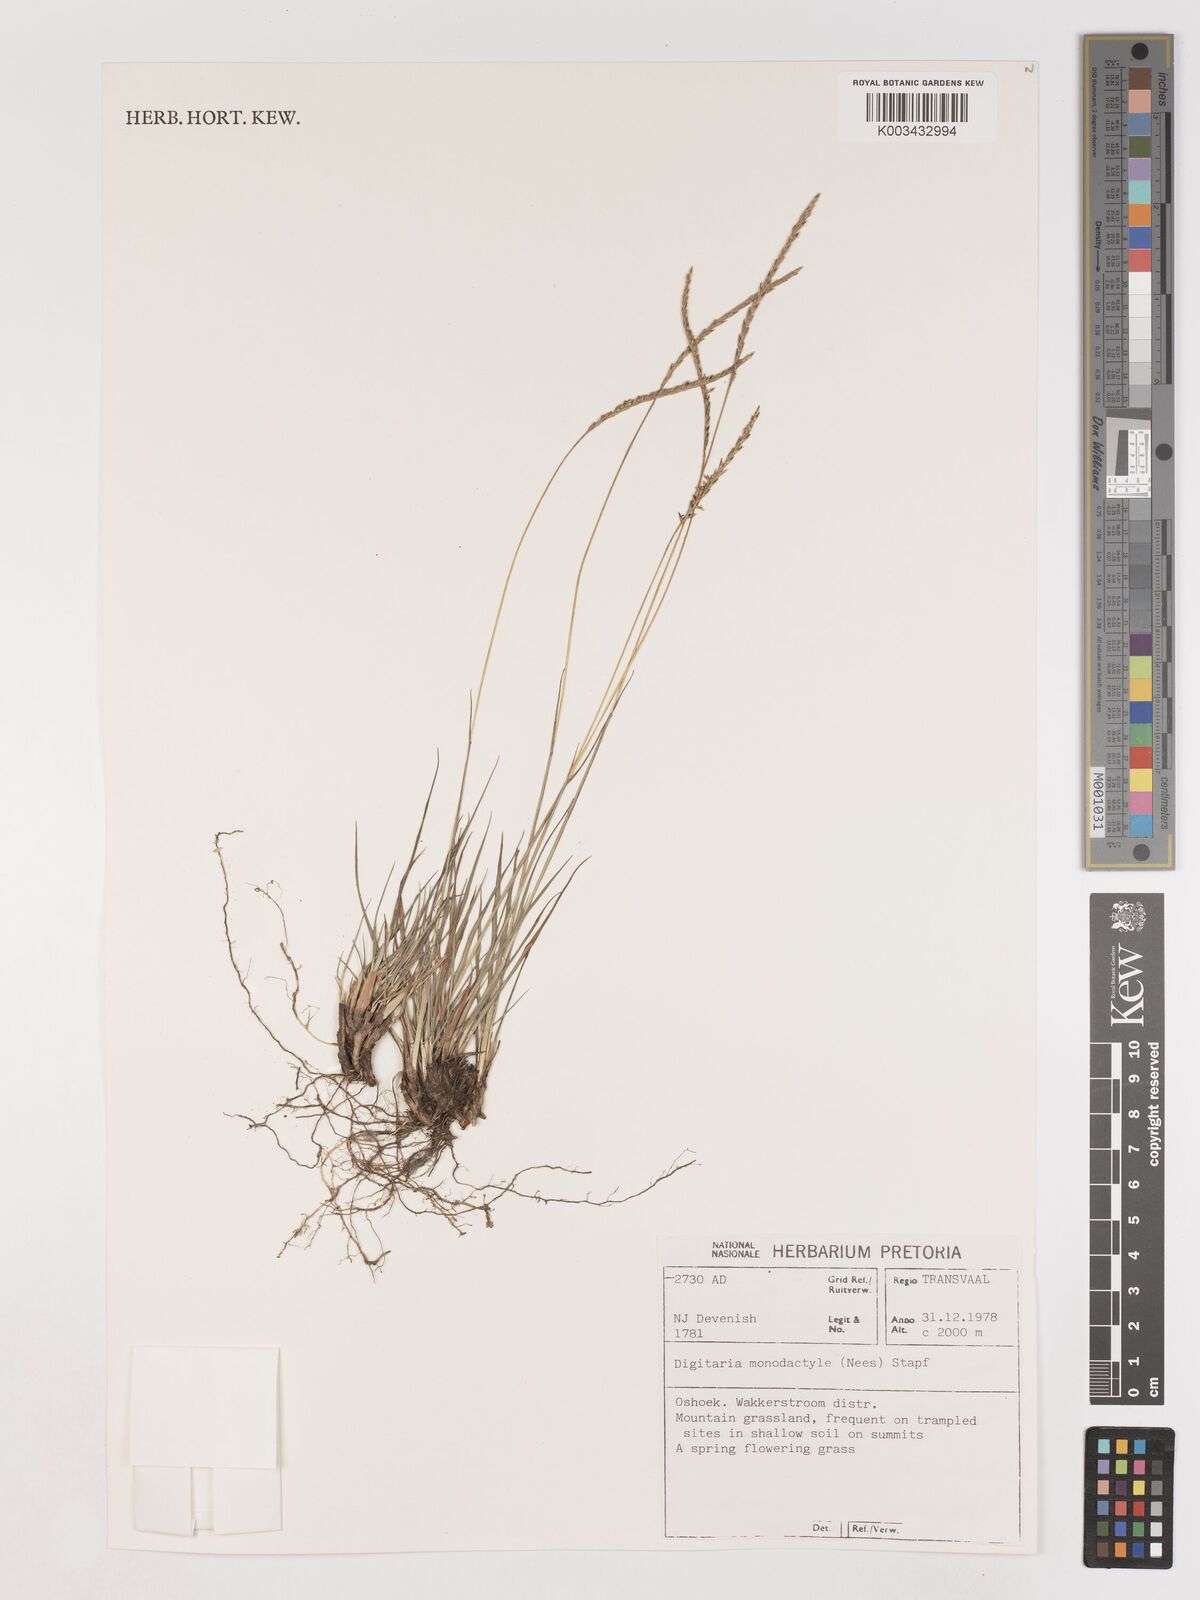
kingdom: Plantae
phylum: Tracheophyta
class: Liliopsida
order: Poales
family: Poaceae
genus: Digitaria
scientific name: Digitaria monodactyla
